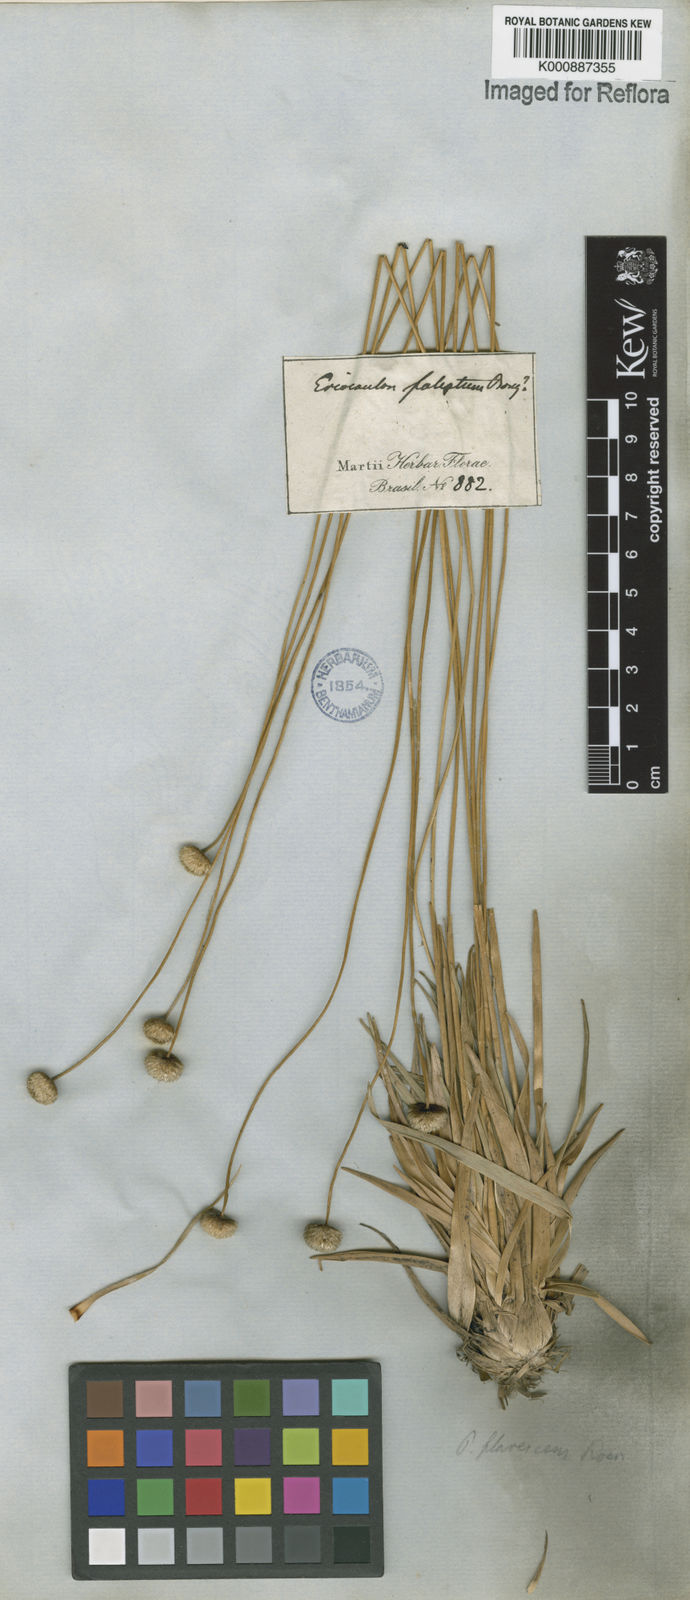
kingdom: Plantae
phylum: Tracheophyta
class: Liliopsida
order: Poales
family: Eriocaulaceae
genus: Leiothrix
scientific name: Leiothrix flavescens
